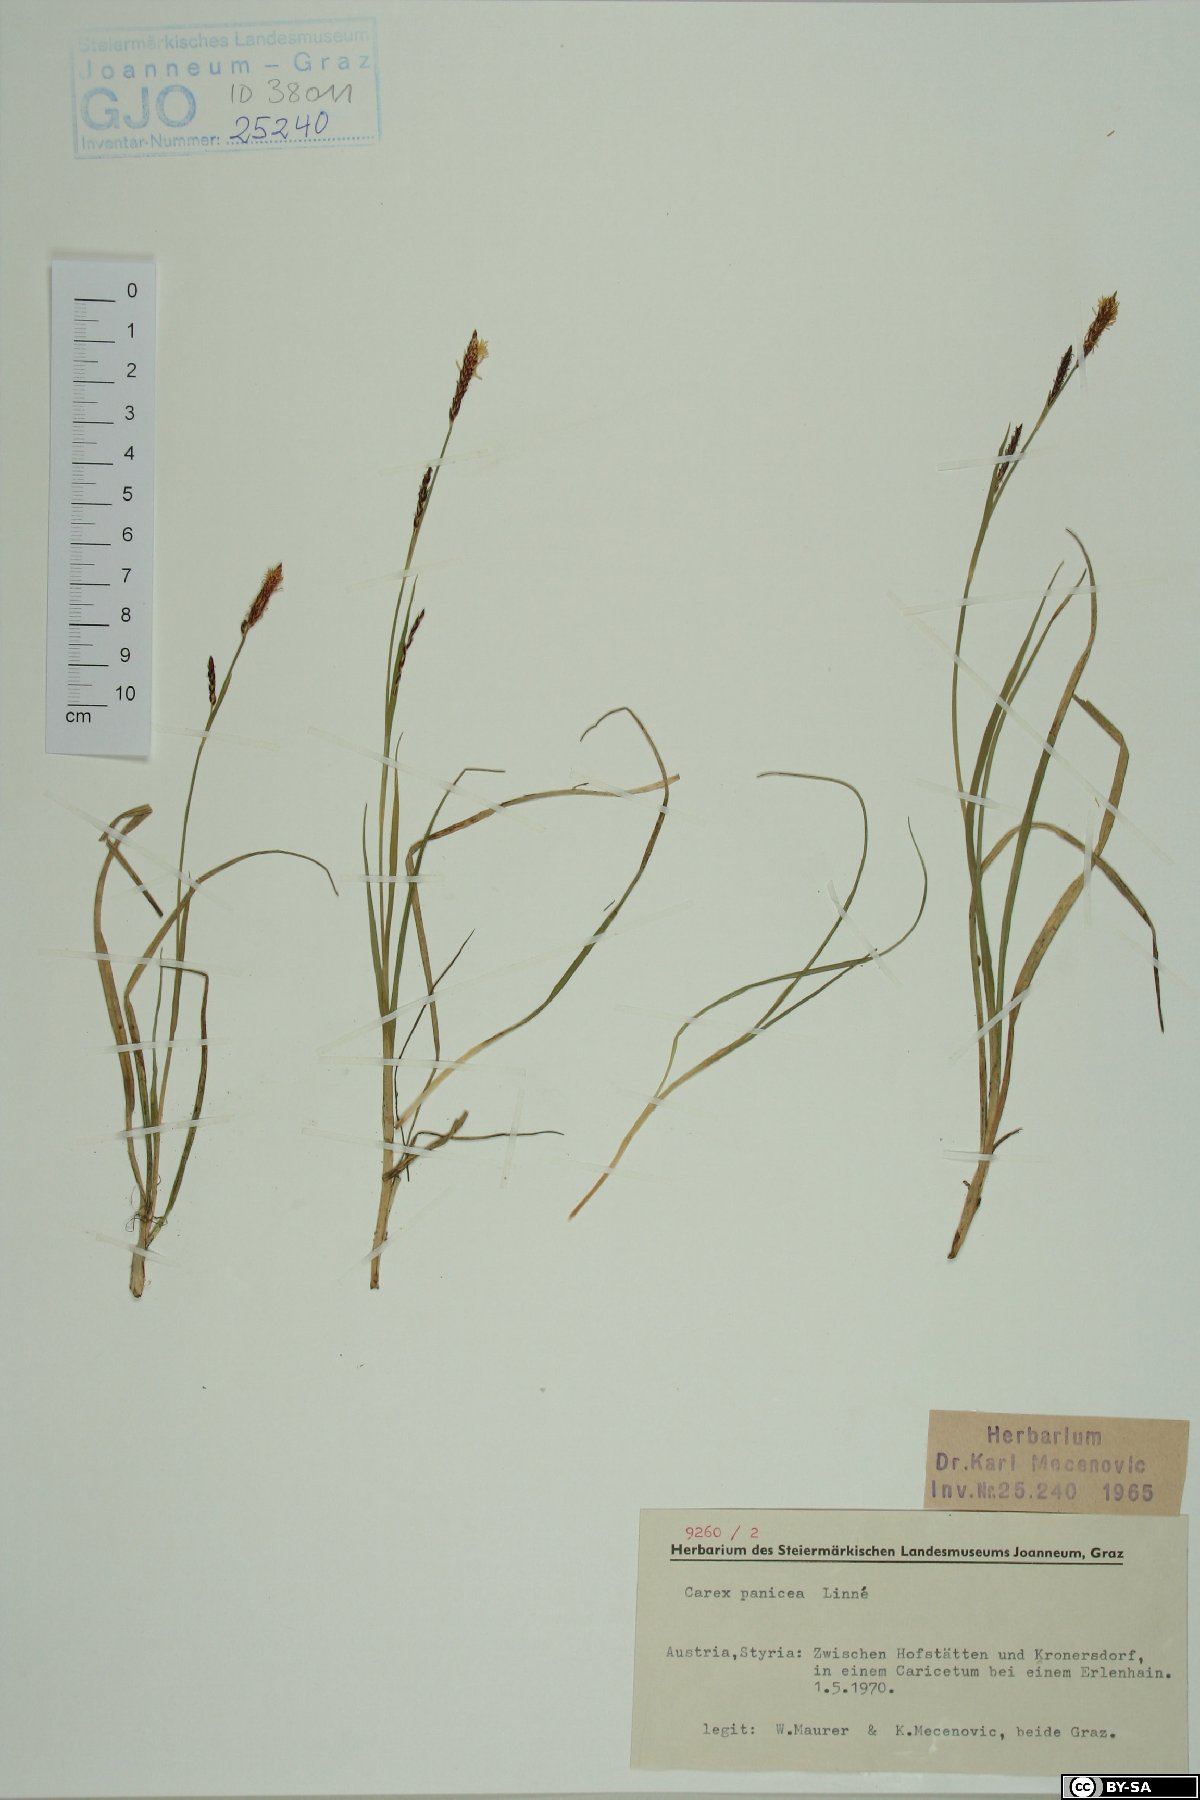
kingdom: Plantae
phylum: Tracheophyta
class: Liliopsida
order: Poales
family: Cyperaceae
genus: Carex
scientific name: Carex panicea
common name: Carnation sedge
